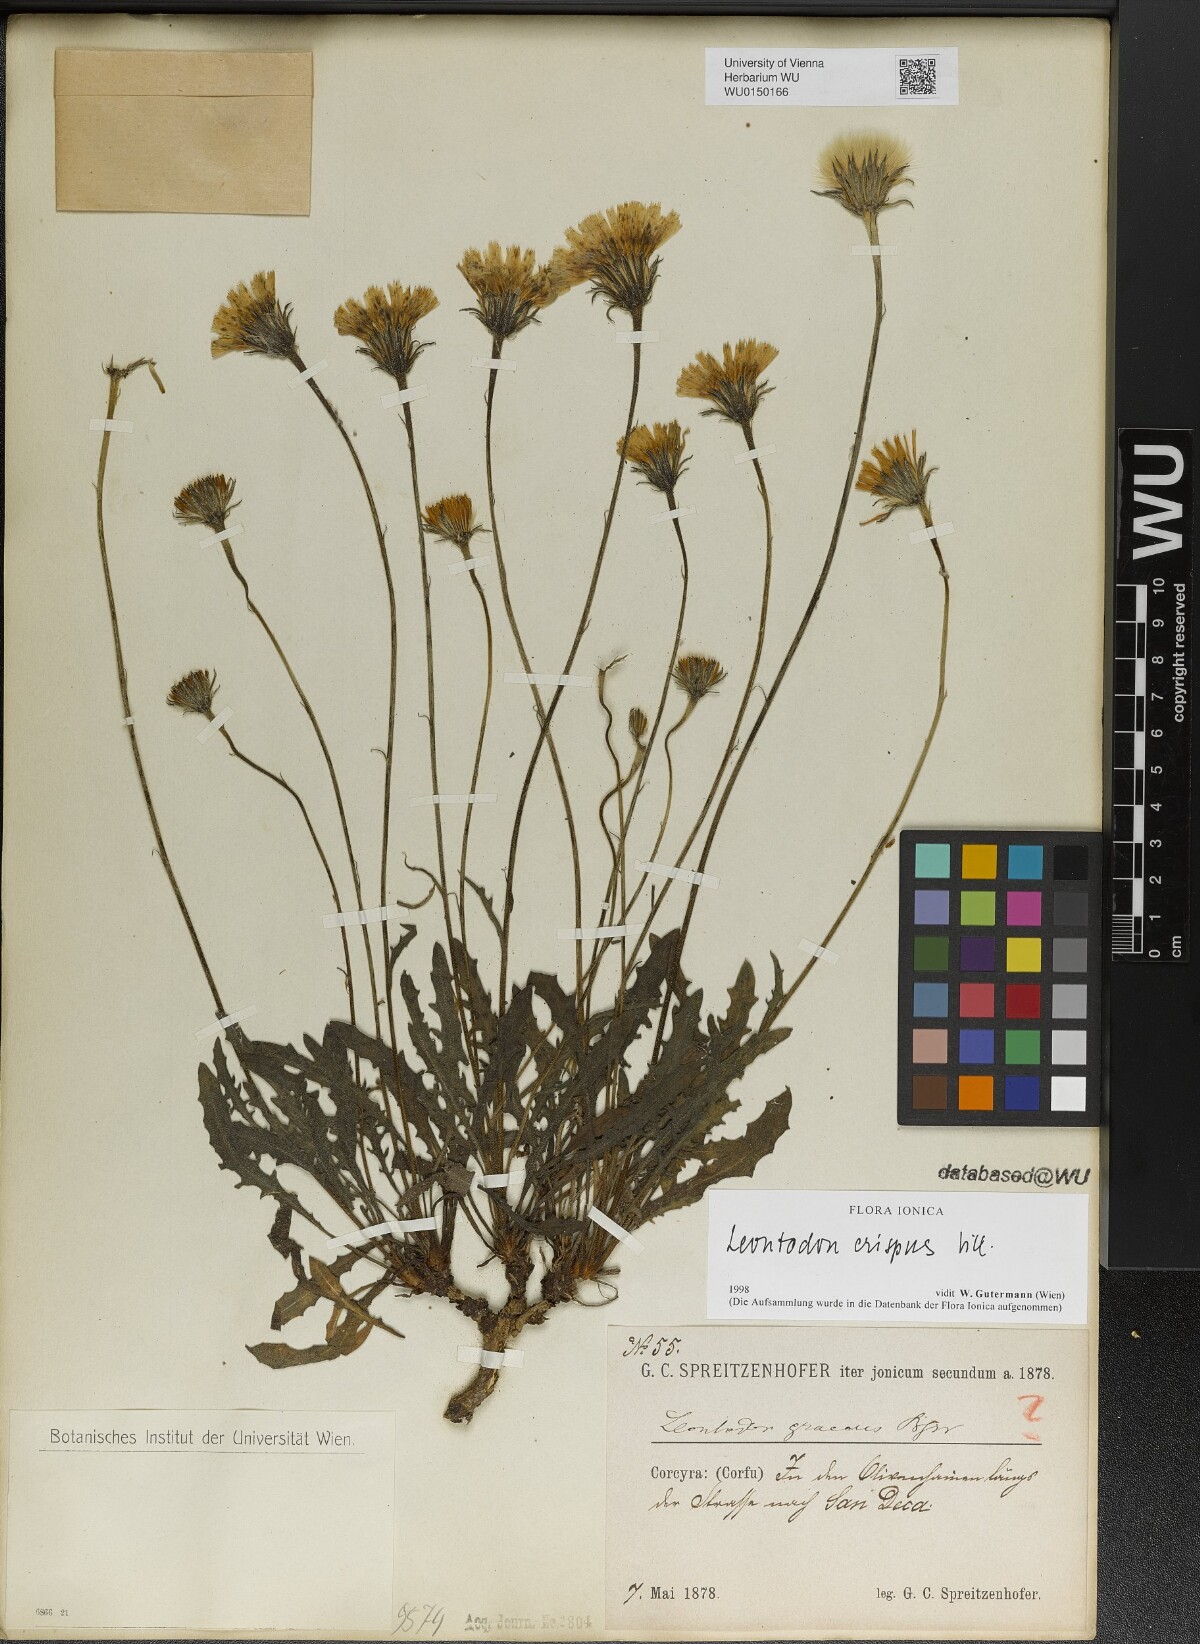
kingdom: Plantae
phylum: Tracheophyta
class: Magnoliopsida
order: Asterales
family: Asteraceae
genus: Leontodon
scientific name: Leontodon crispus
